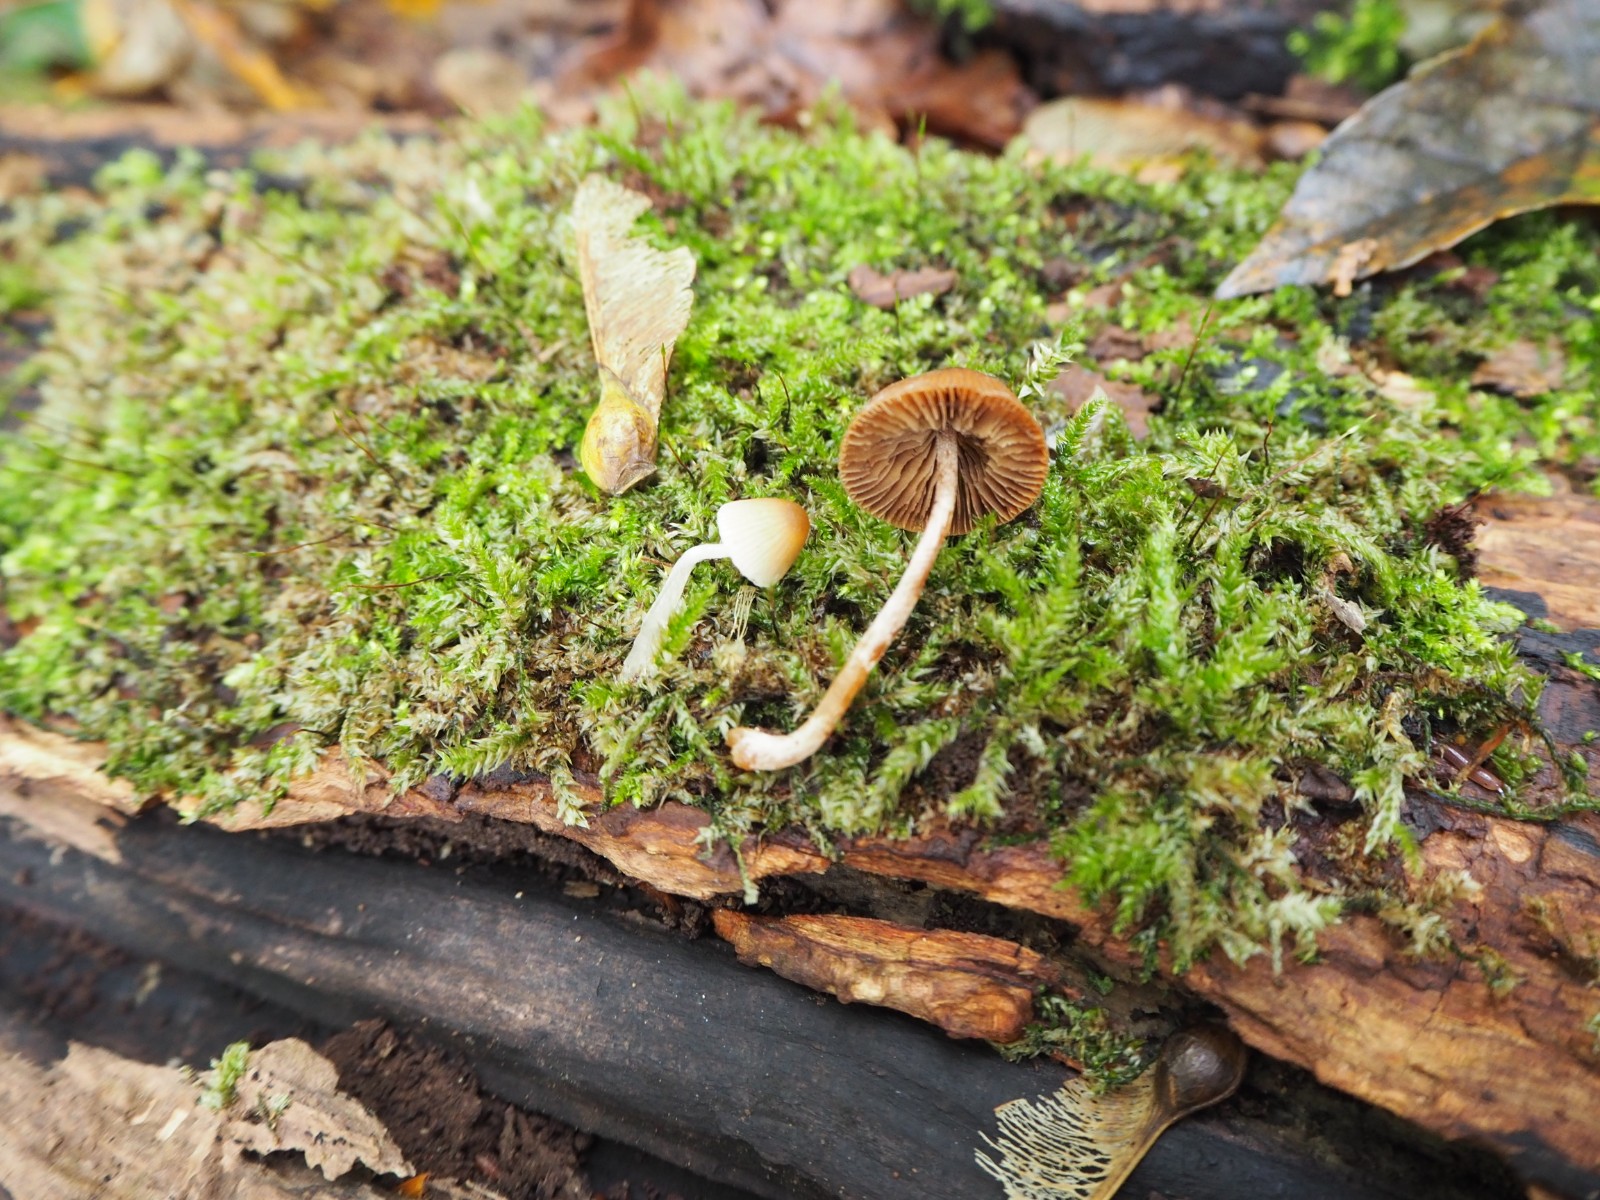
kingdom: Fungi
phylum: Basidiomycota
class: Agaricomycetes
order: Agaricales
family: Bolbitiaceae
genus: Conocybe
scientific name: Conocybe subpubescens
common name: krat-keglehat
